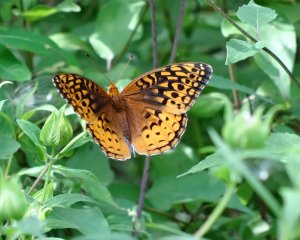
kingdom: Animalia
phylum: Arthropoda
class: Insecta
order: Lepidoptera
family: Nymphalidae
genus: Speyeria
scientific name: Speyeria cybele
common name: Great Spangled Fritillary
